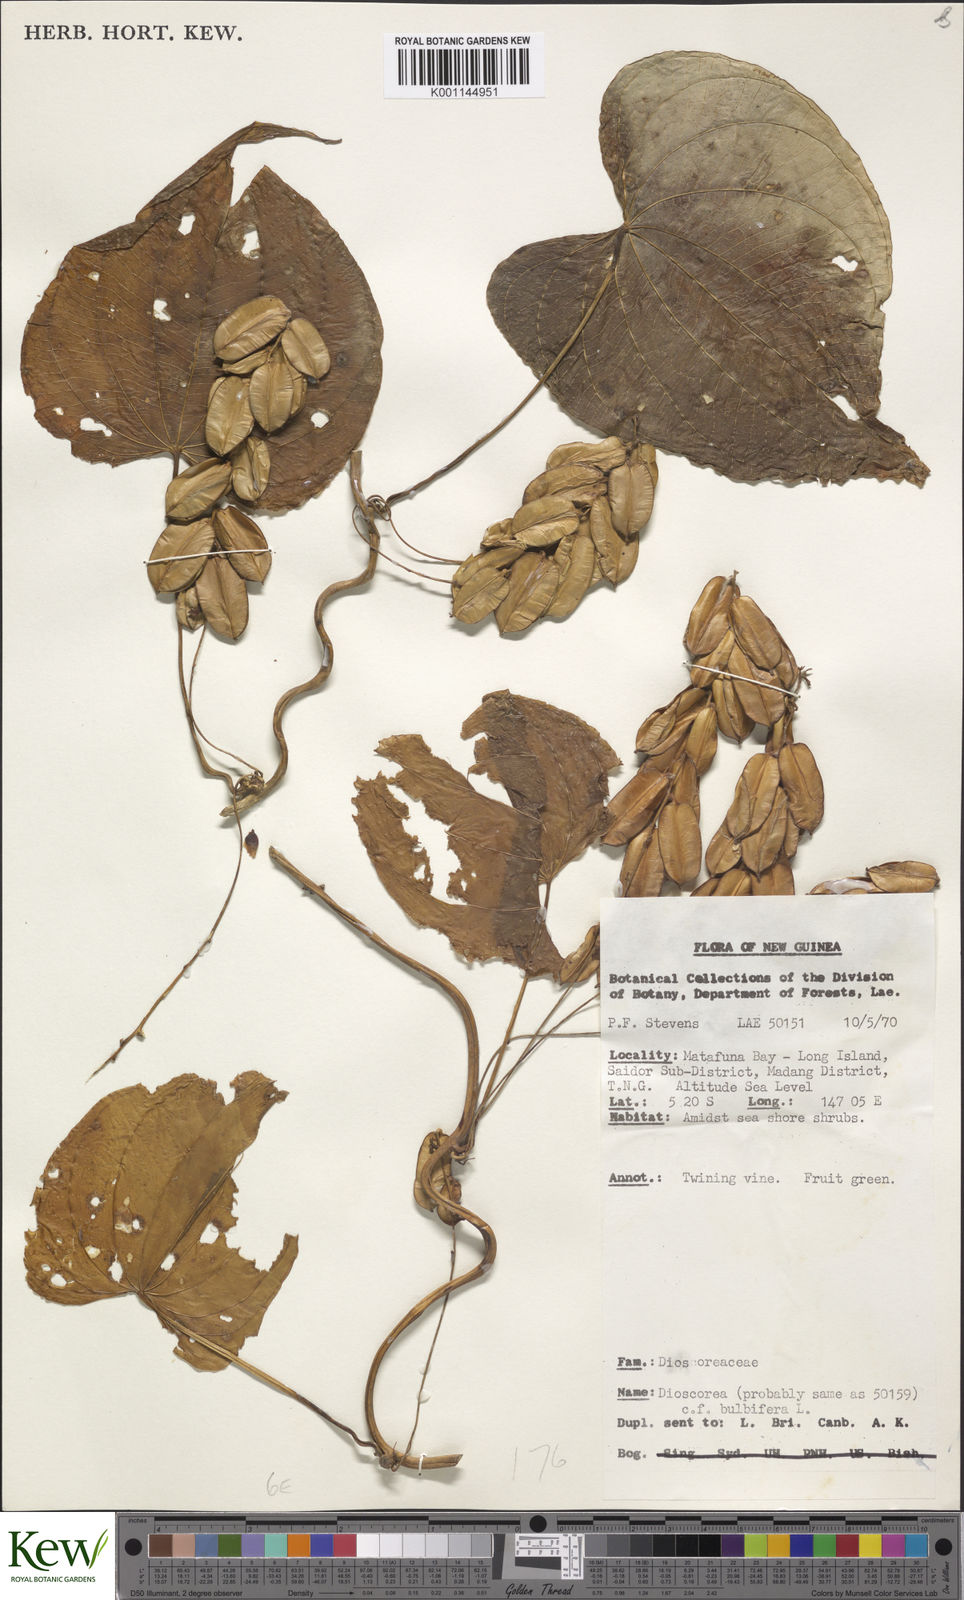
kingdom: Plantae
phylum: Tracheophyta
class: Liliopsida
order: Dioscoreales
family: Dioscoreaceae
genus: Dioscorea
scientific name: Dioscorea bulbifera
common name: Air yam
